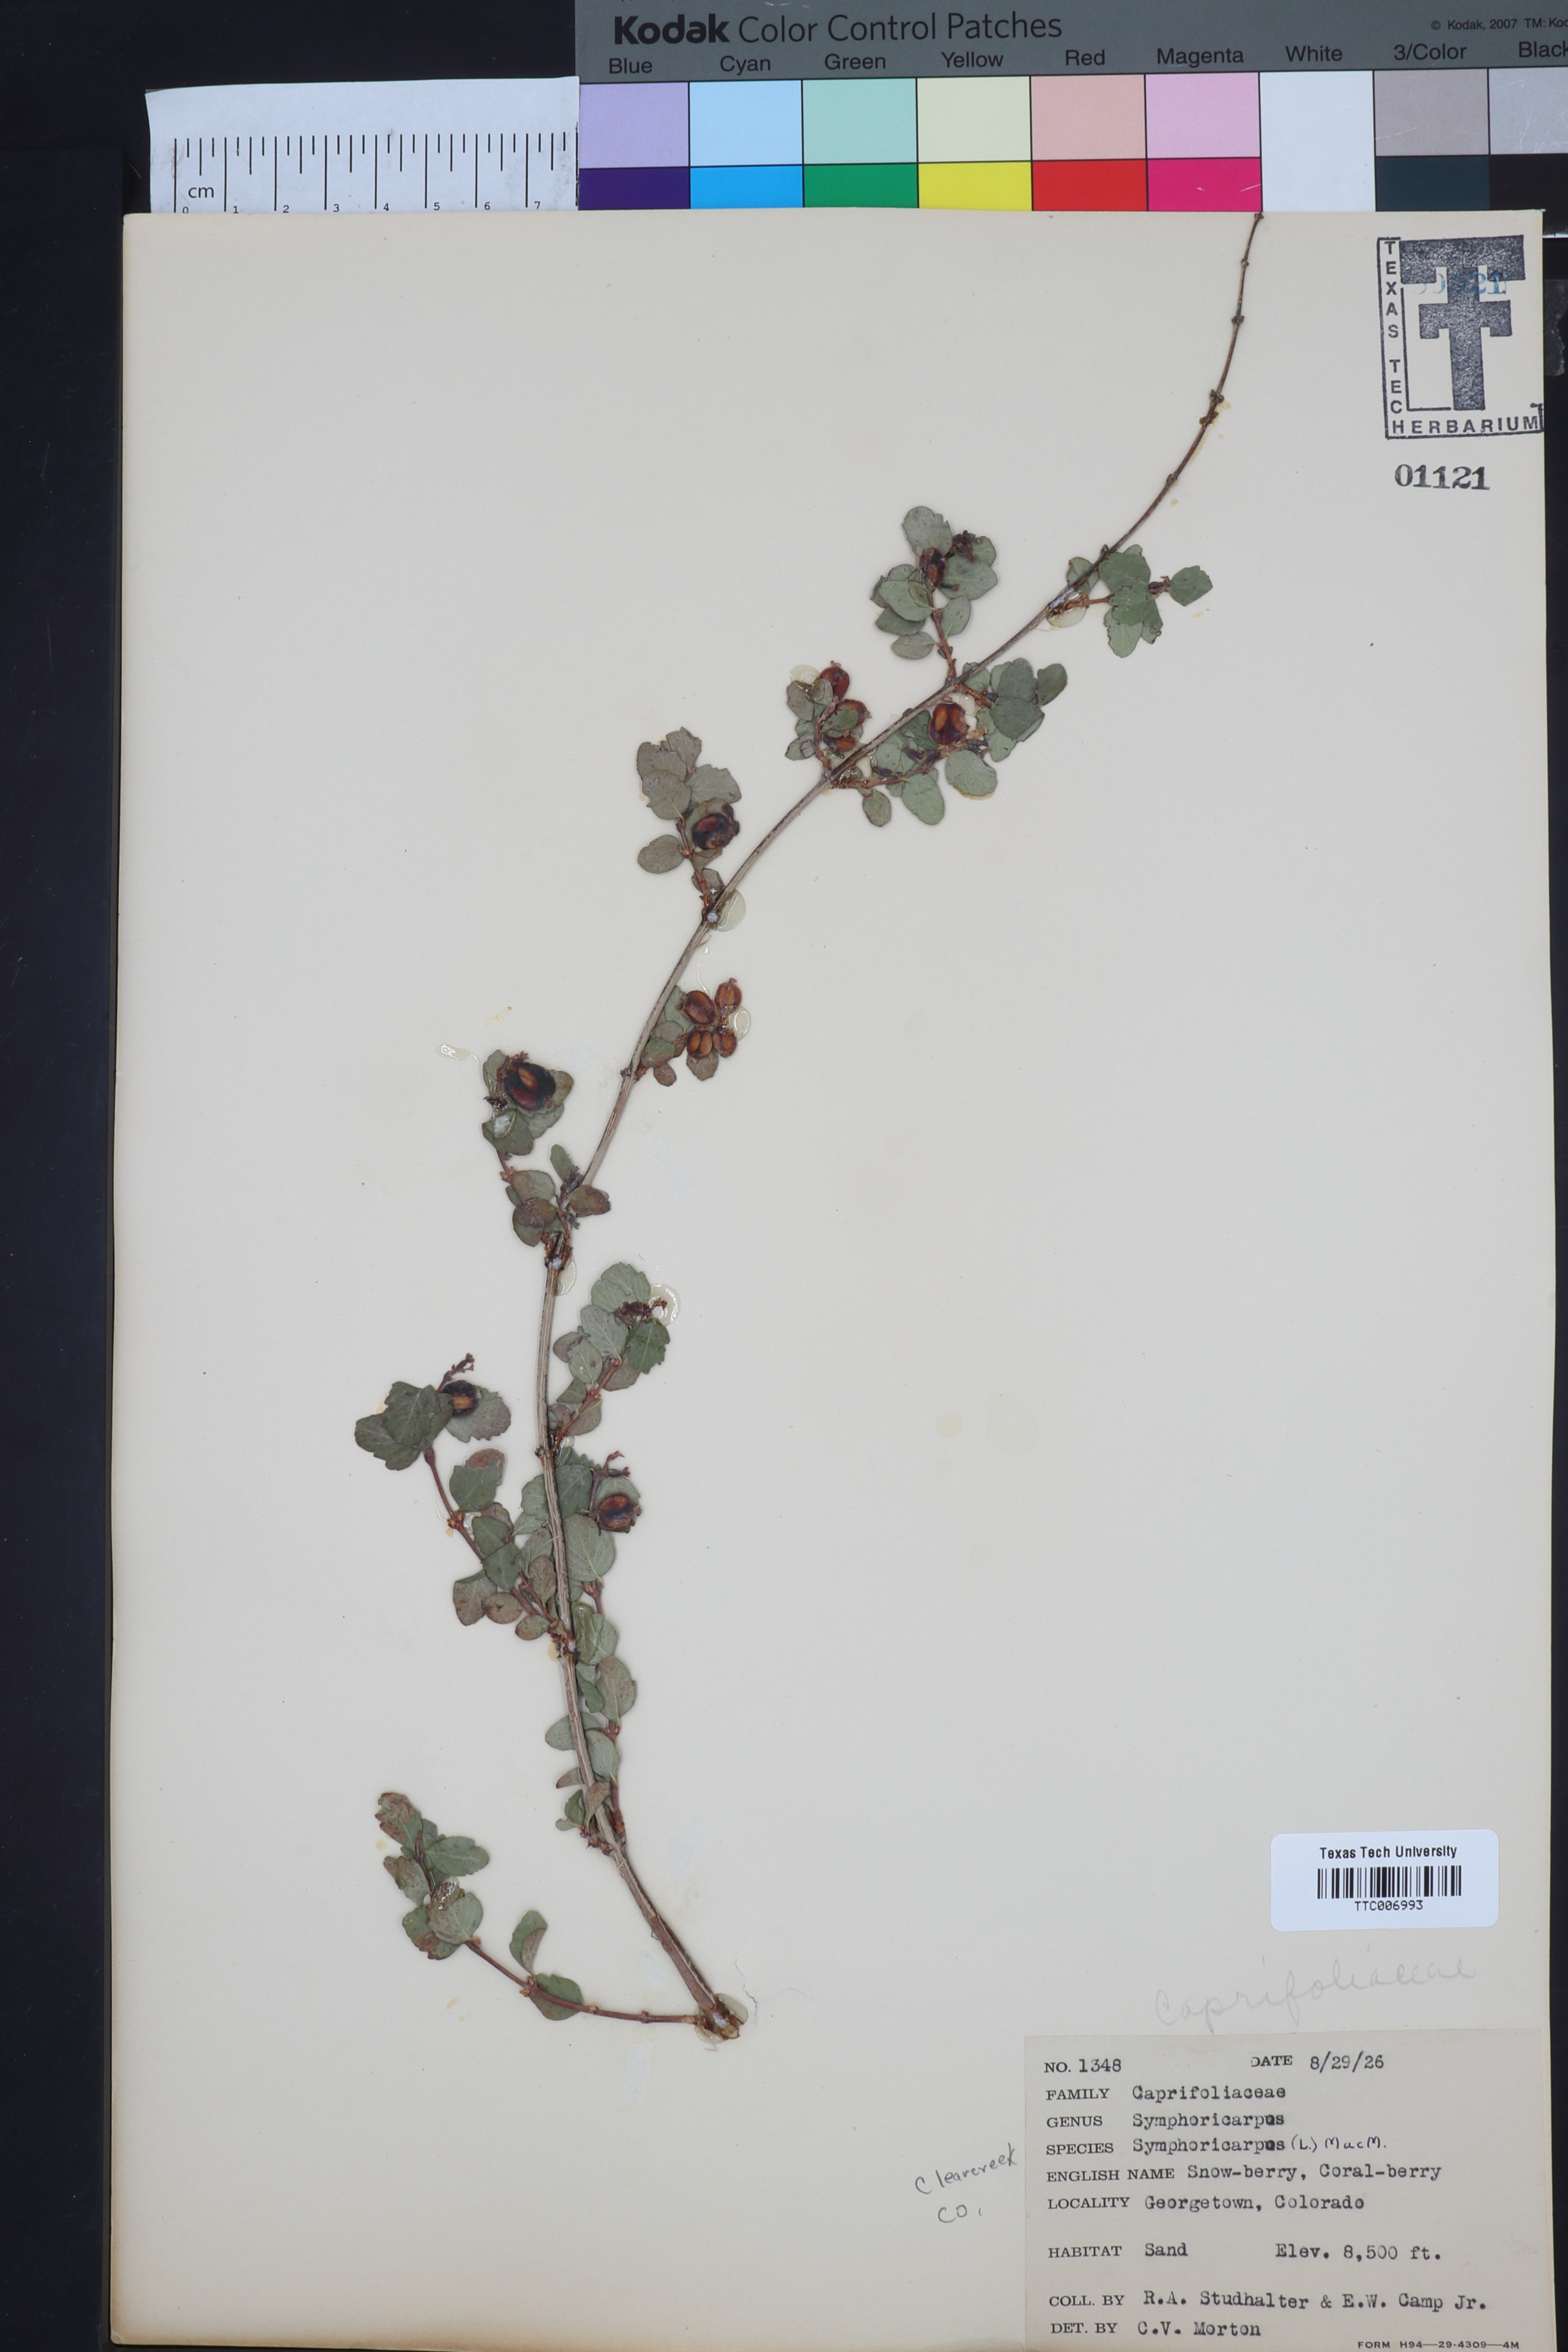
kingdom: Plantae
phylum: Tracheophyta
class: Magnoliopsida
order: Dipsacales
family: Caprifoliaceae
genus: Symphoricarpos
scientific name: Symphoricarpos
